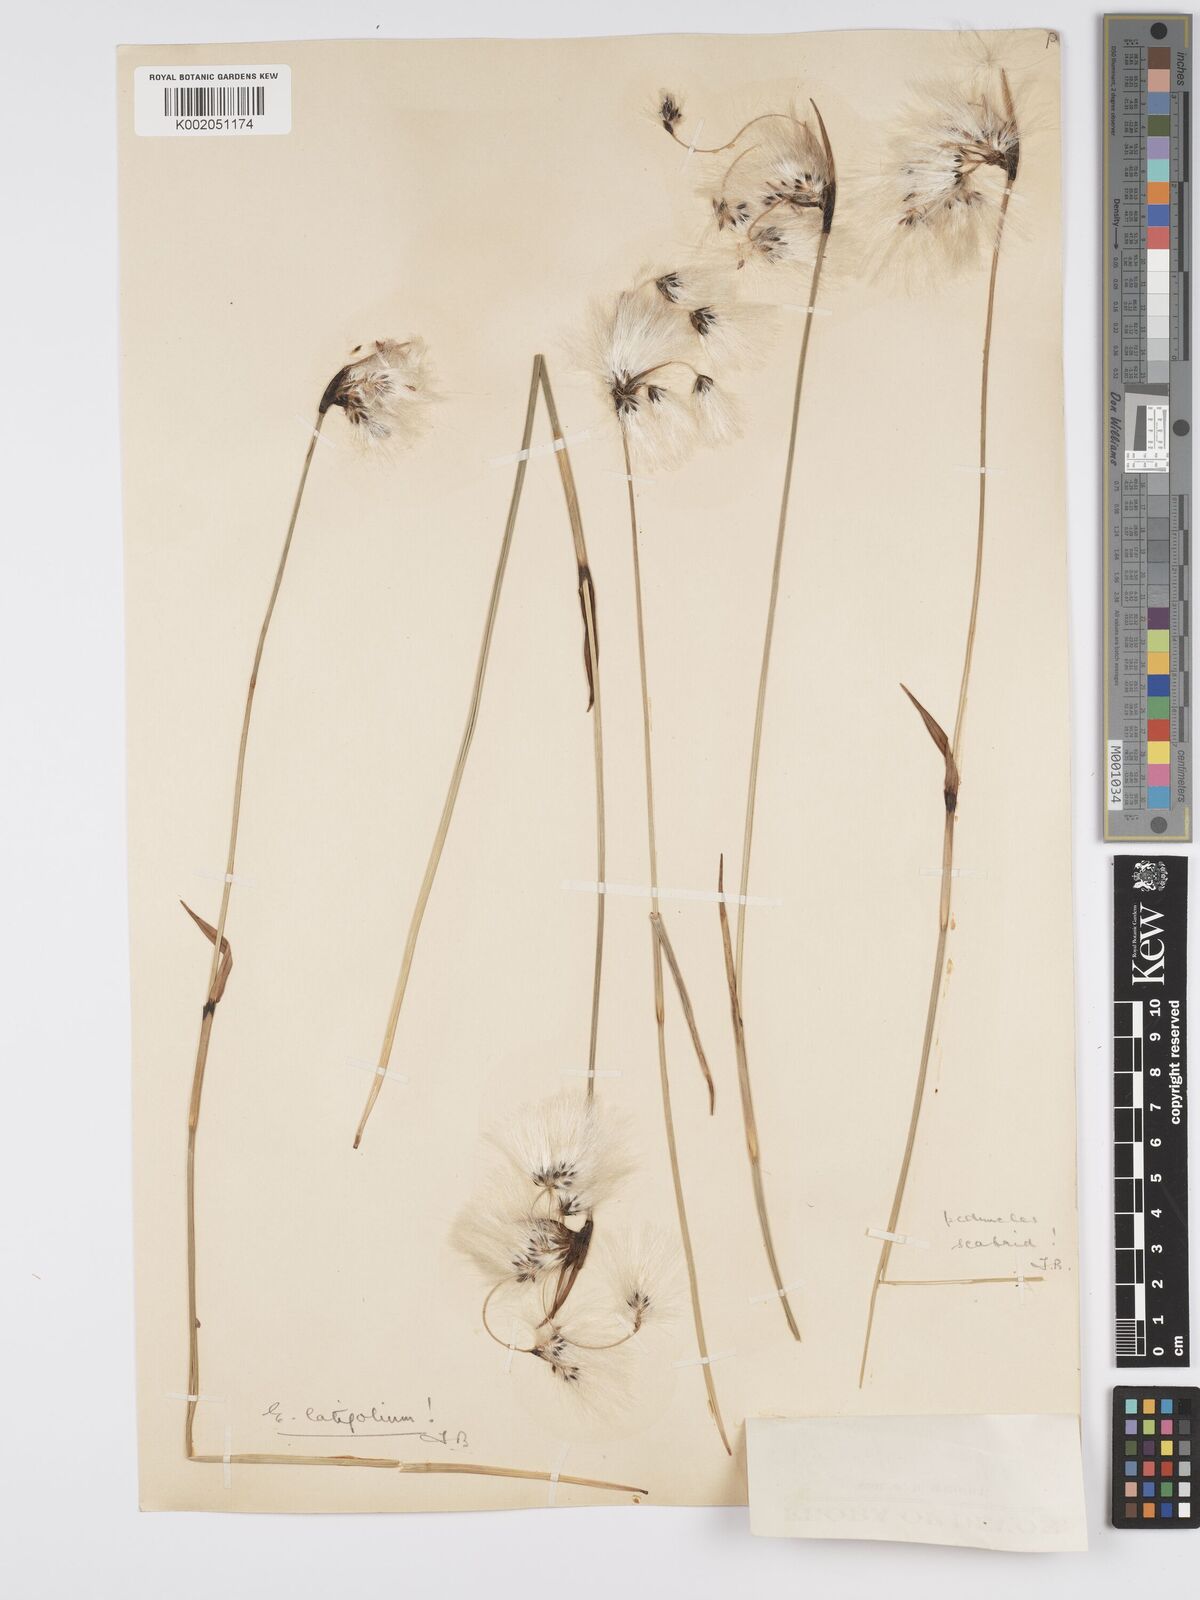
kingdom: Plantae
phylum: Tracheophyta
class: Liliopsida
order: Poales
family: Cyperaceae
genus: Eriophorum
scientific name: Eriophorum latifolium
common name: Broad-leaved cottongrass
